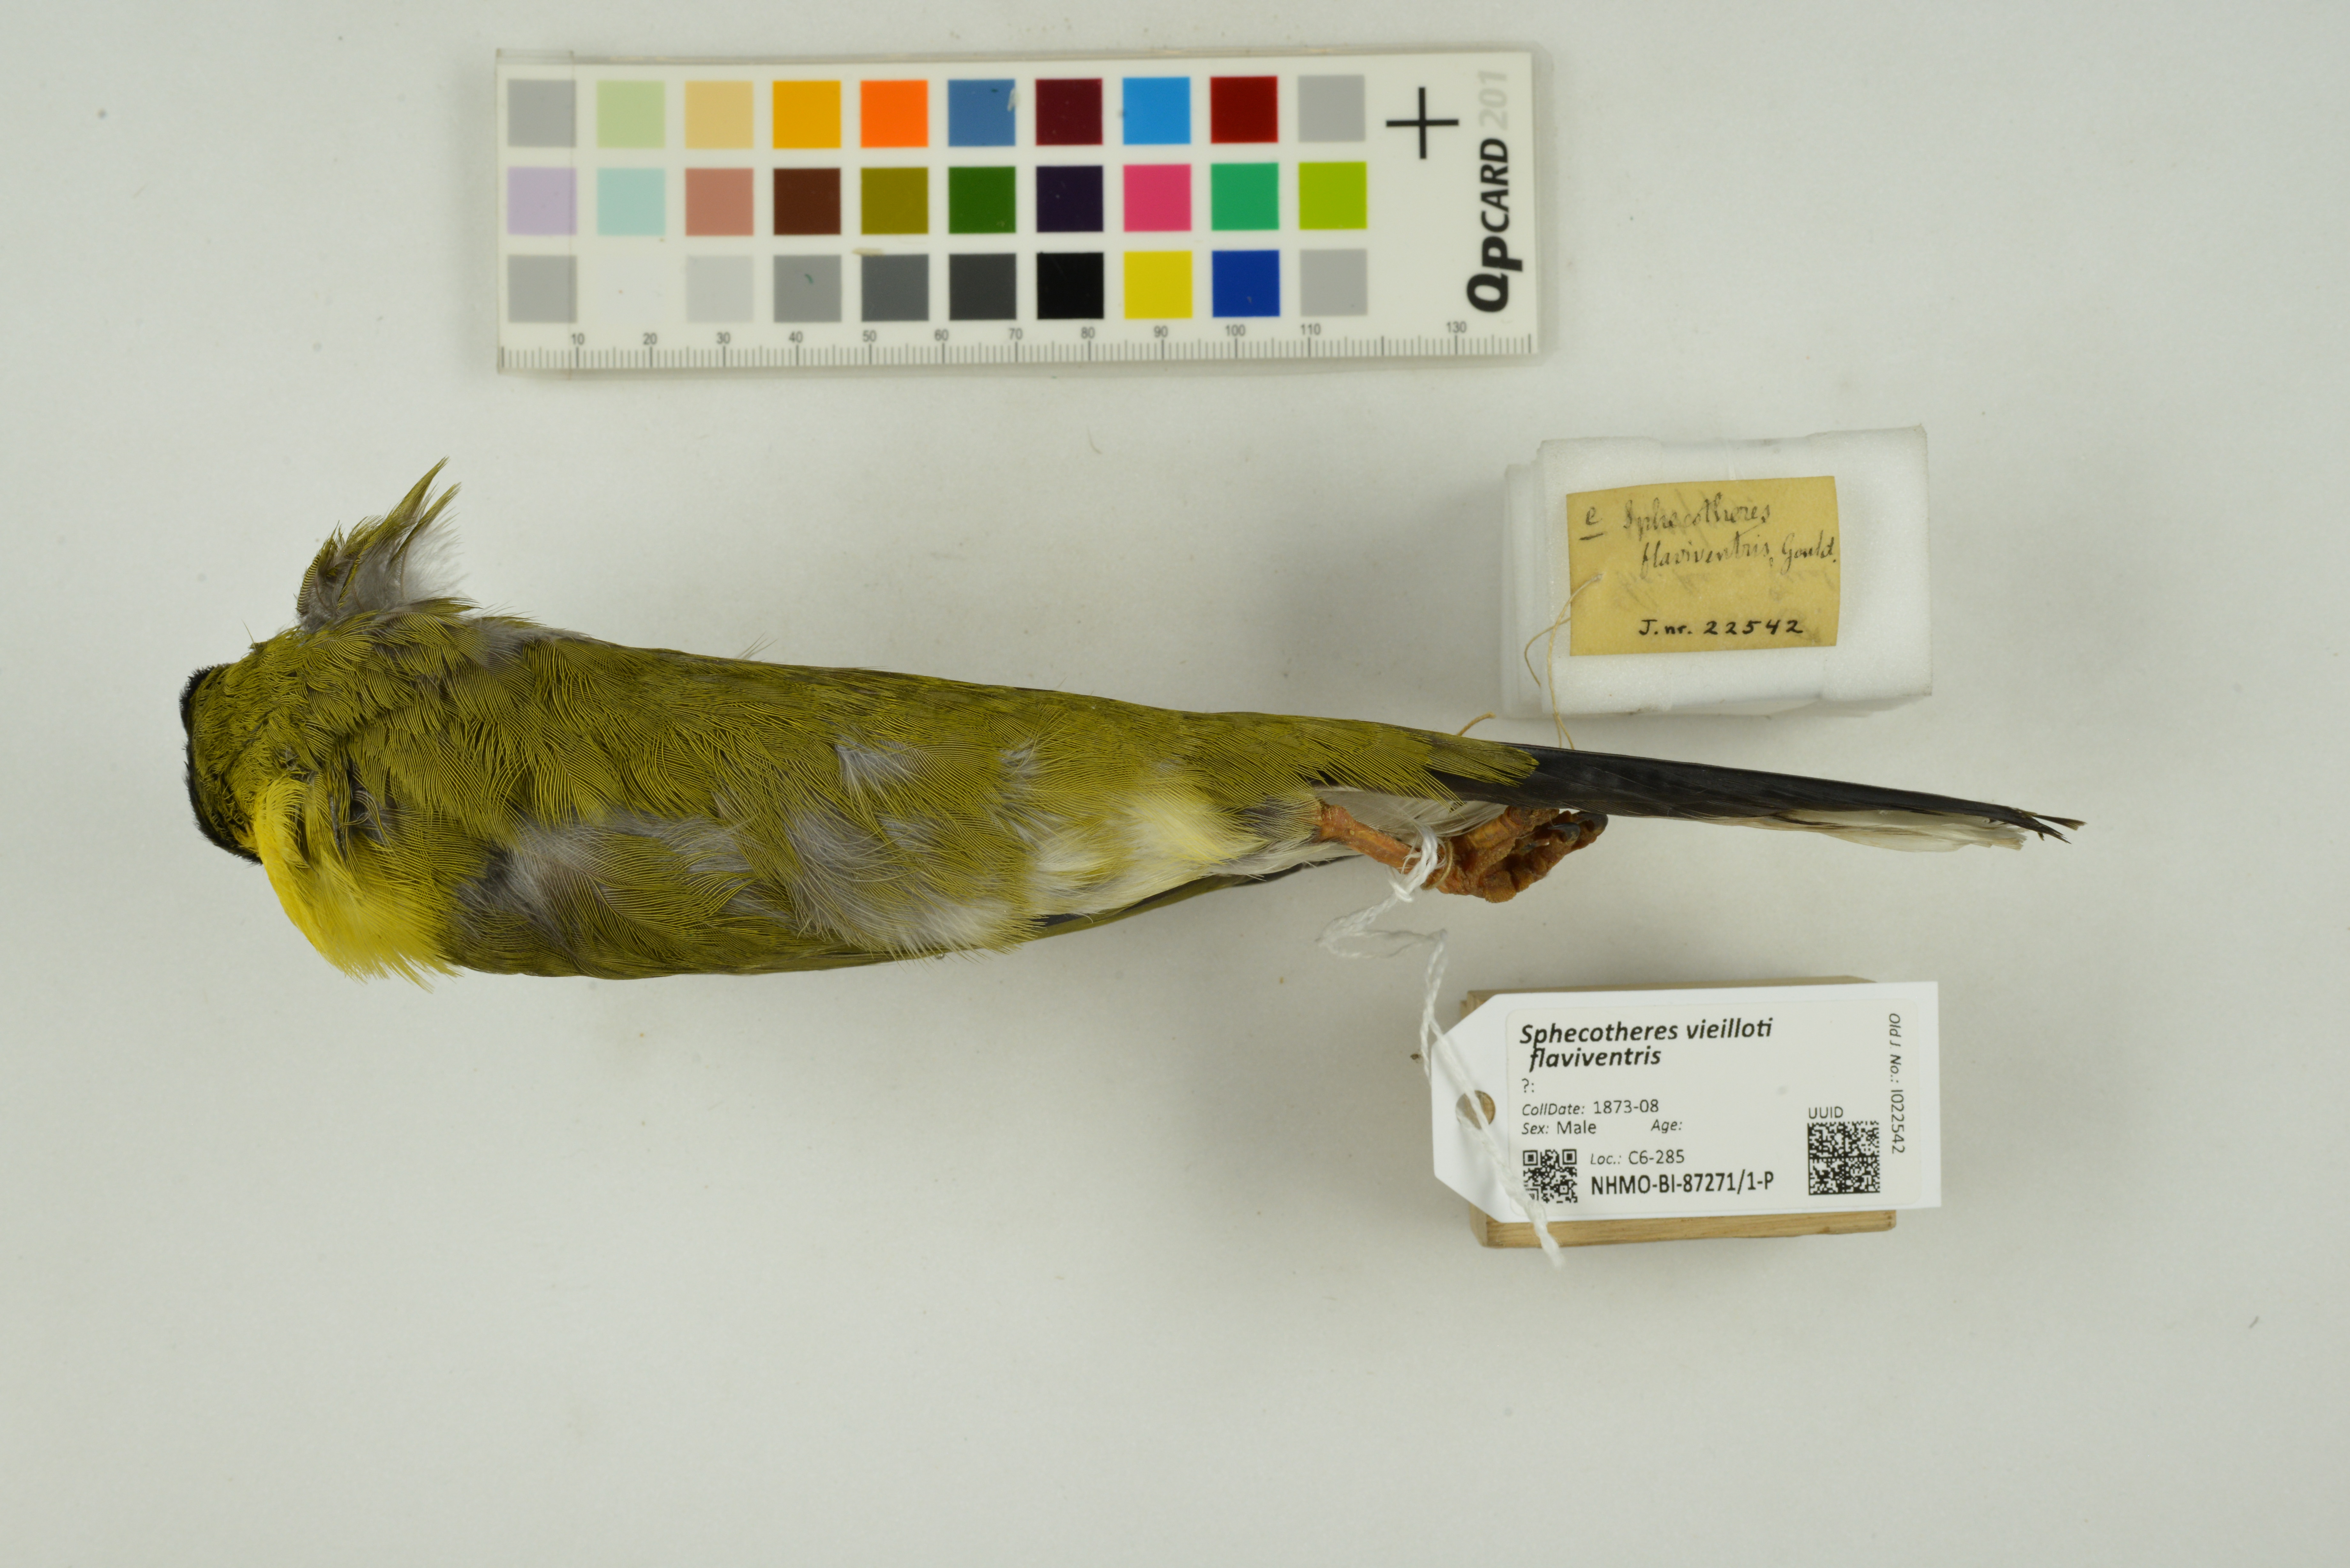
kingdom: Animalia
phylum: Chordata
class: Aves
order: Passeriformes
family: Oriolidae
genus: Sphecotheres
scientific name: Sphecotheres vieilloti
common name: Australasian figbird
